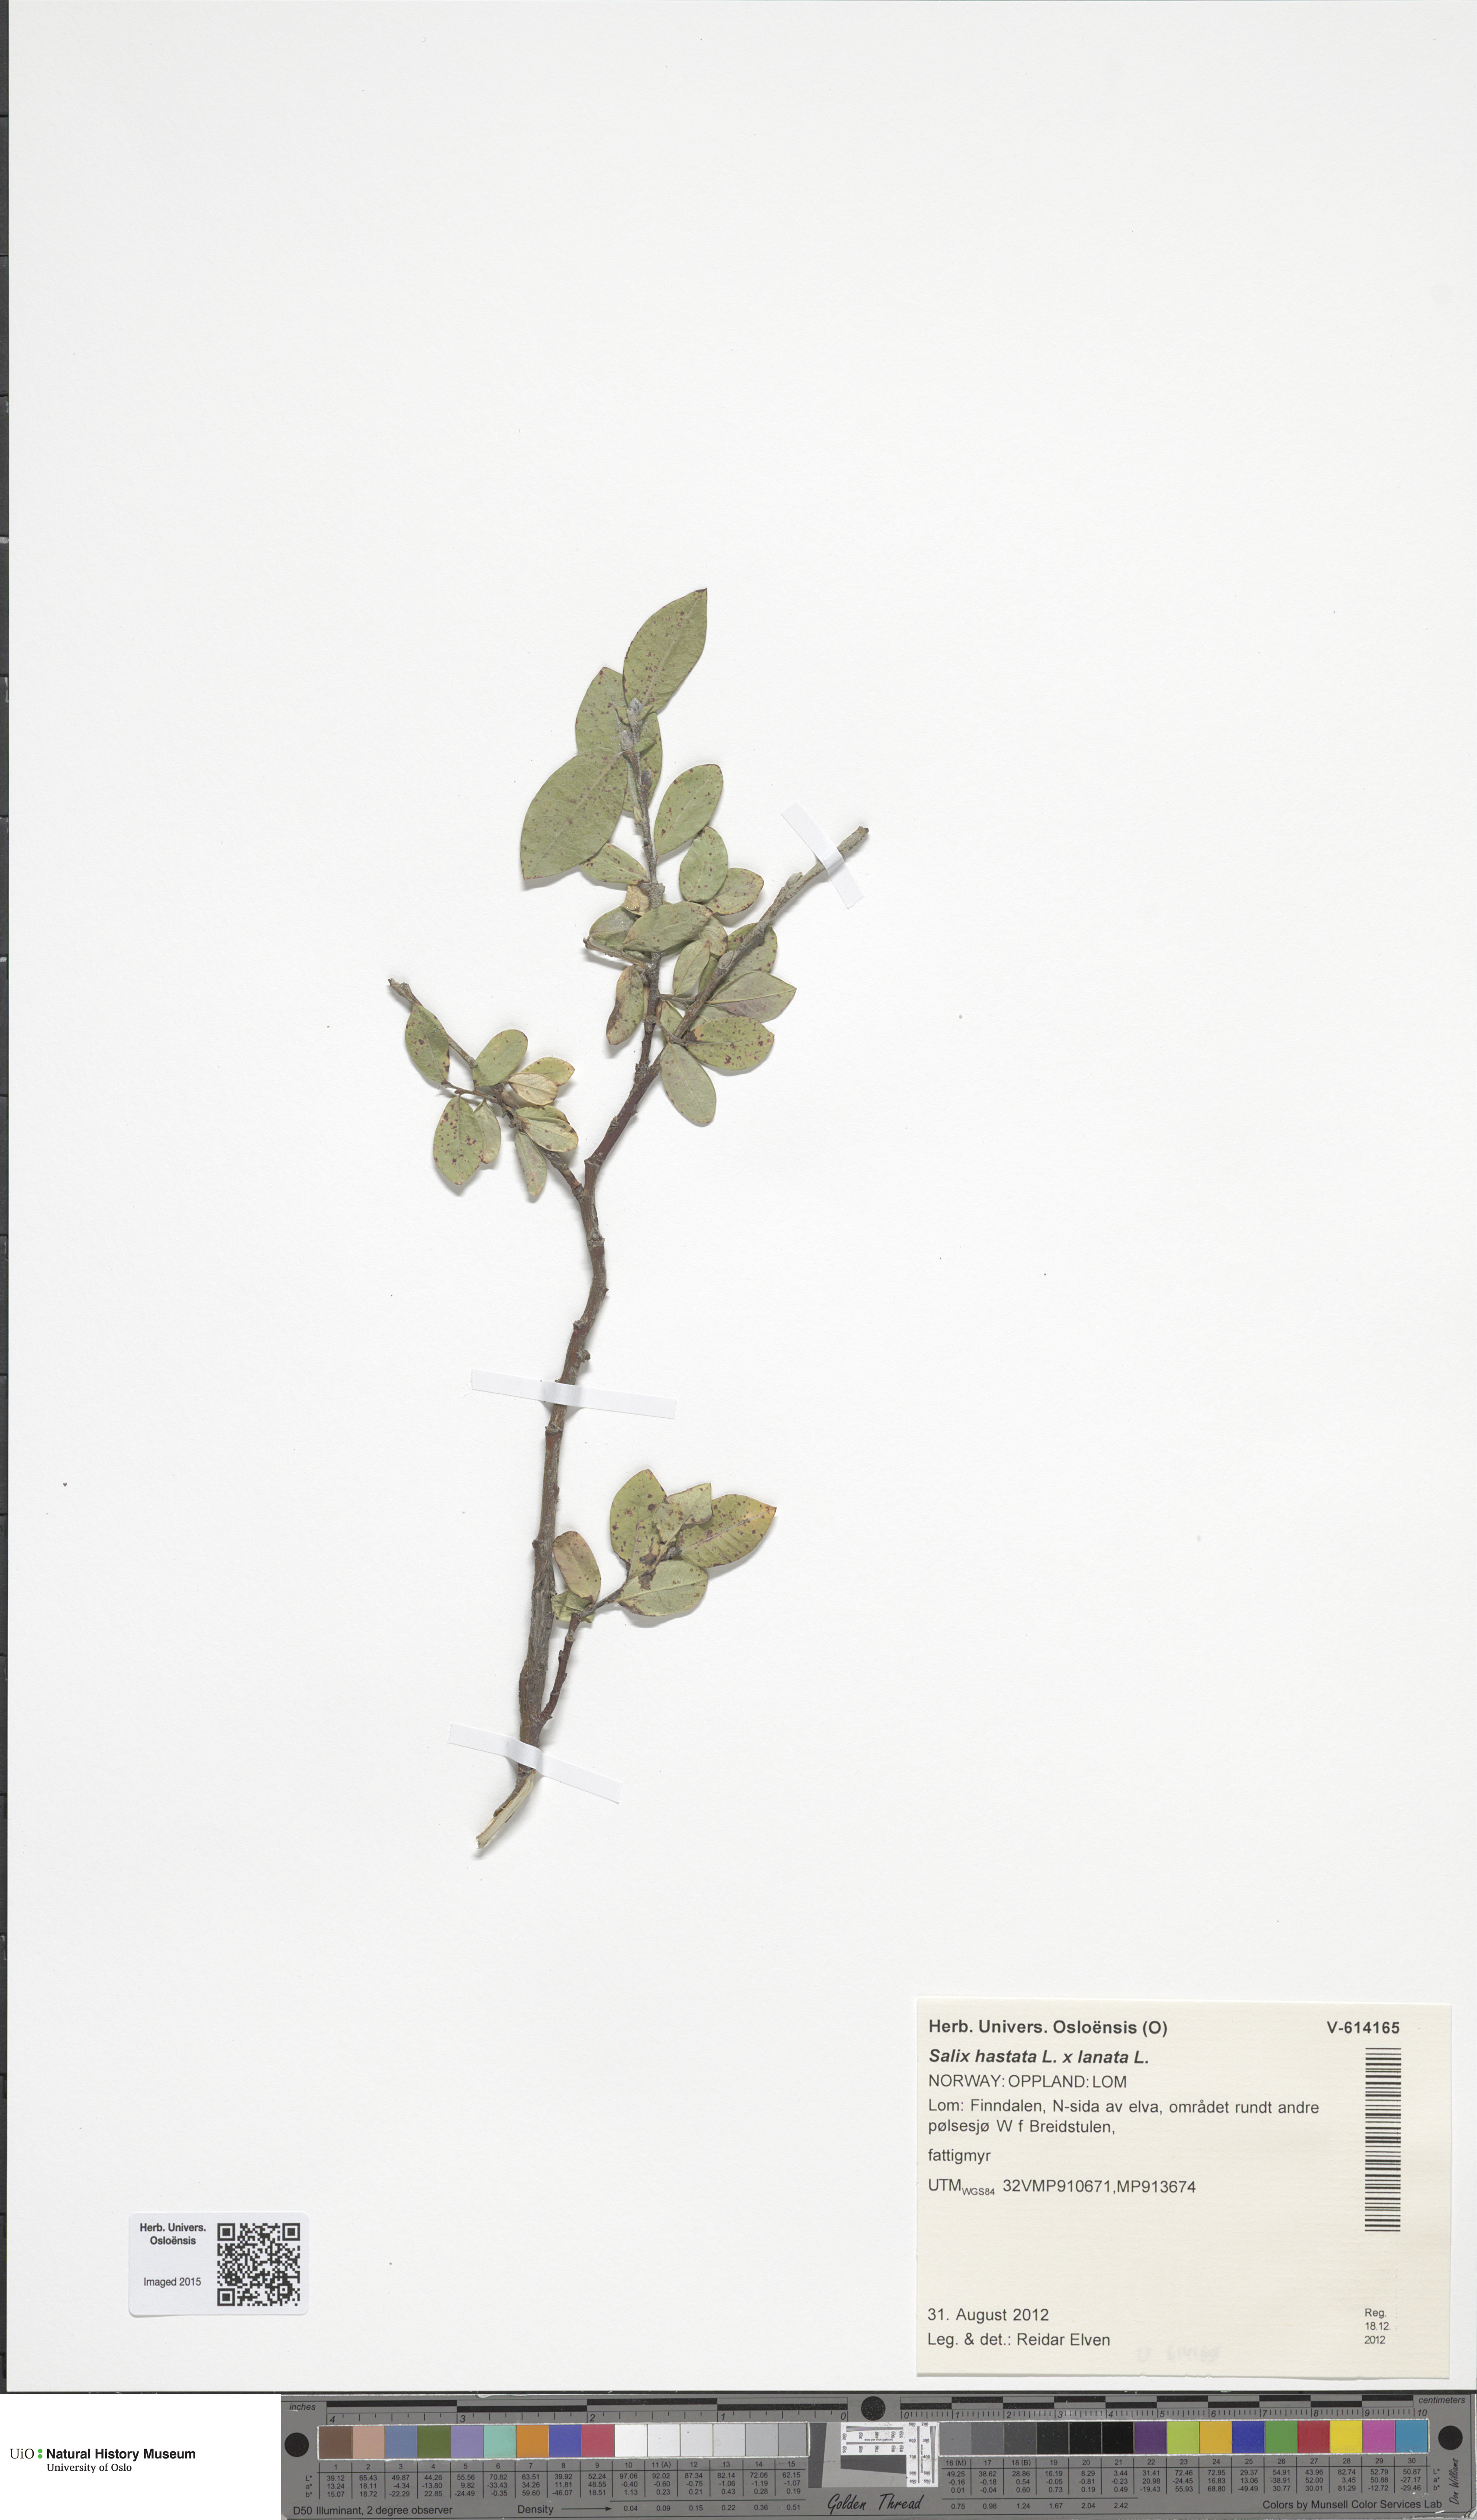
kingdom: Plantae
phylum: Tracheophyta
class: Magnoliopsida
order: Malpighiales
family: Salicaceae
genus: Salix
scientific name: Salix
